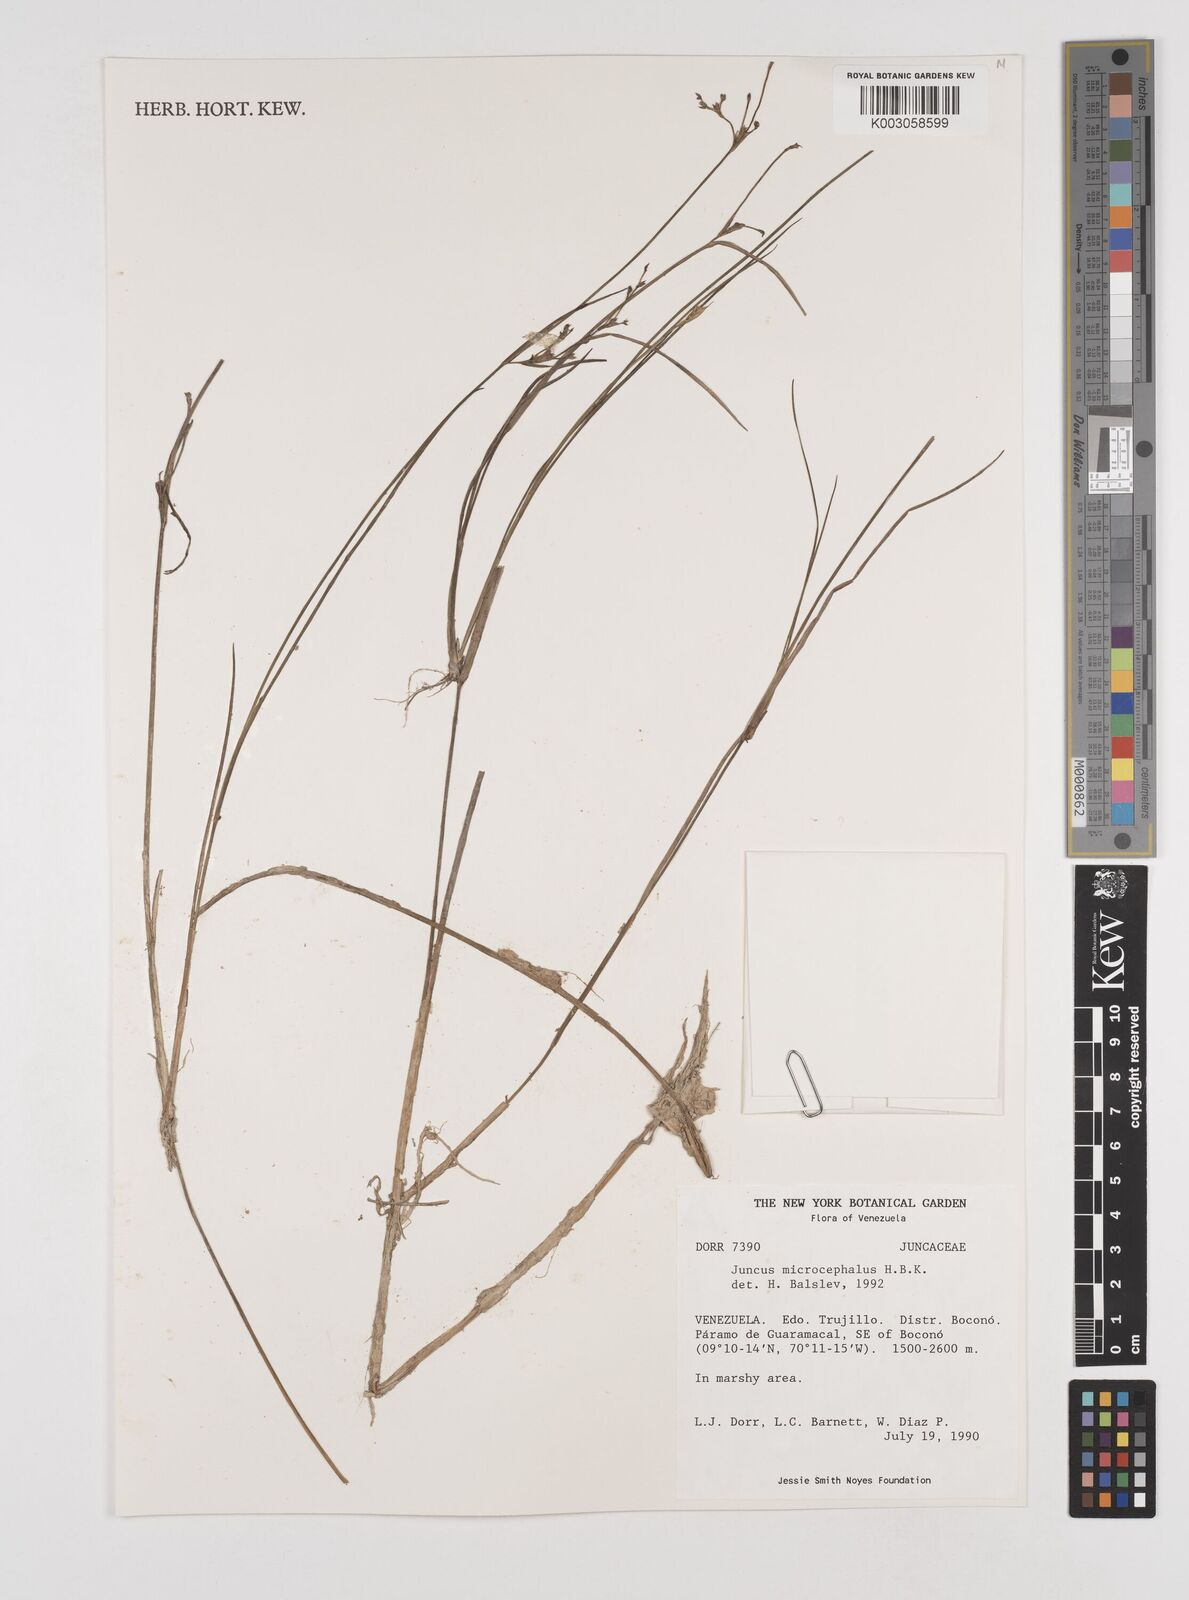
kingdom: Plantae
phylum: Tracheophyta
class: Liliopsida
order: Poales
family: Juncaceae
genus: Juncus
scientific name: Juncus
